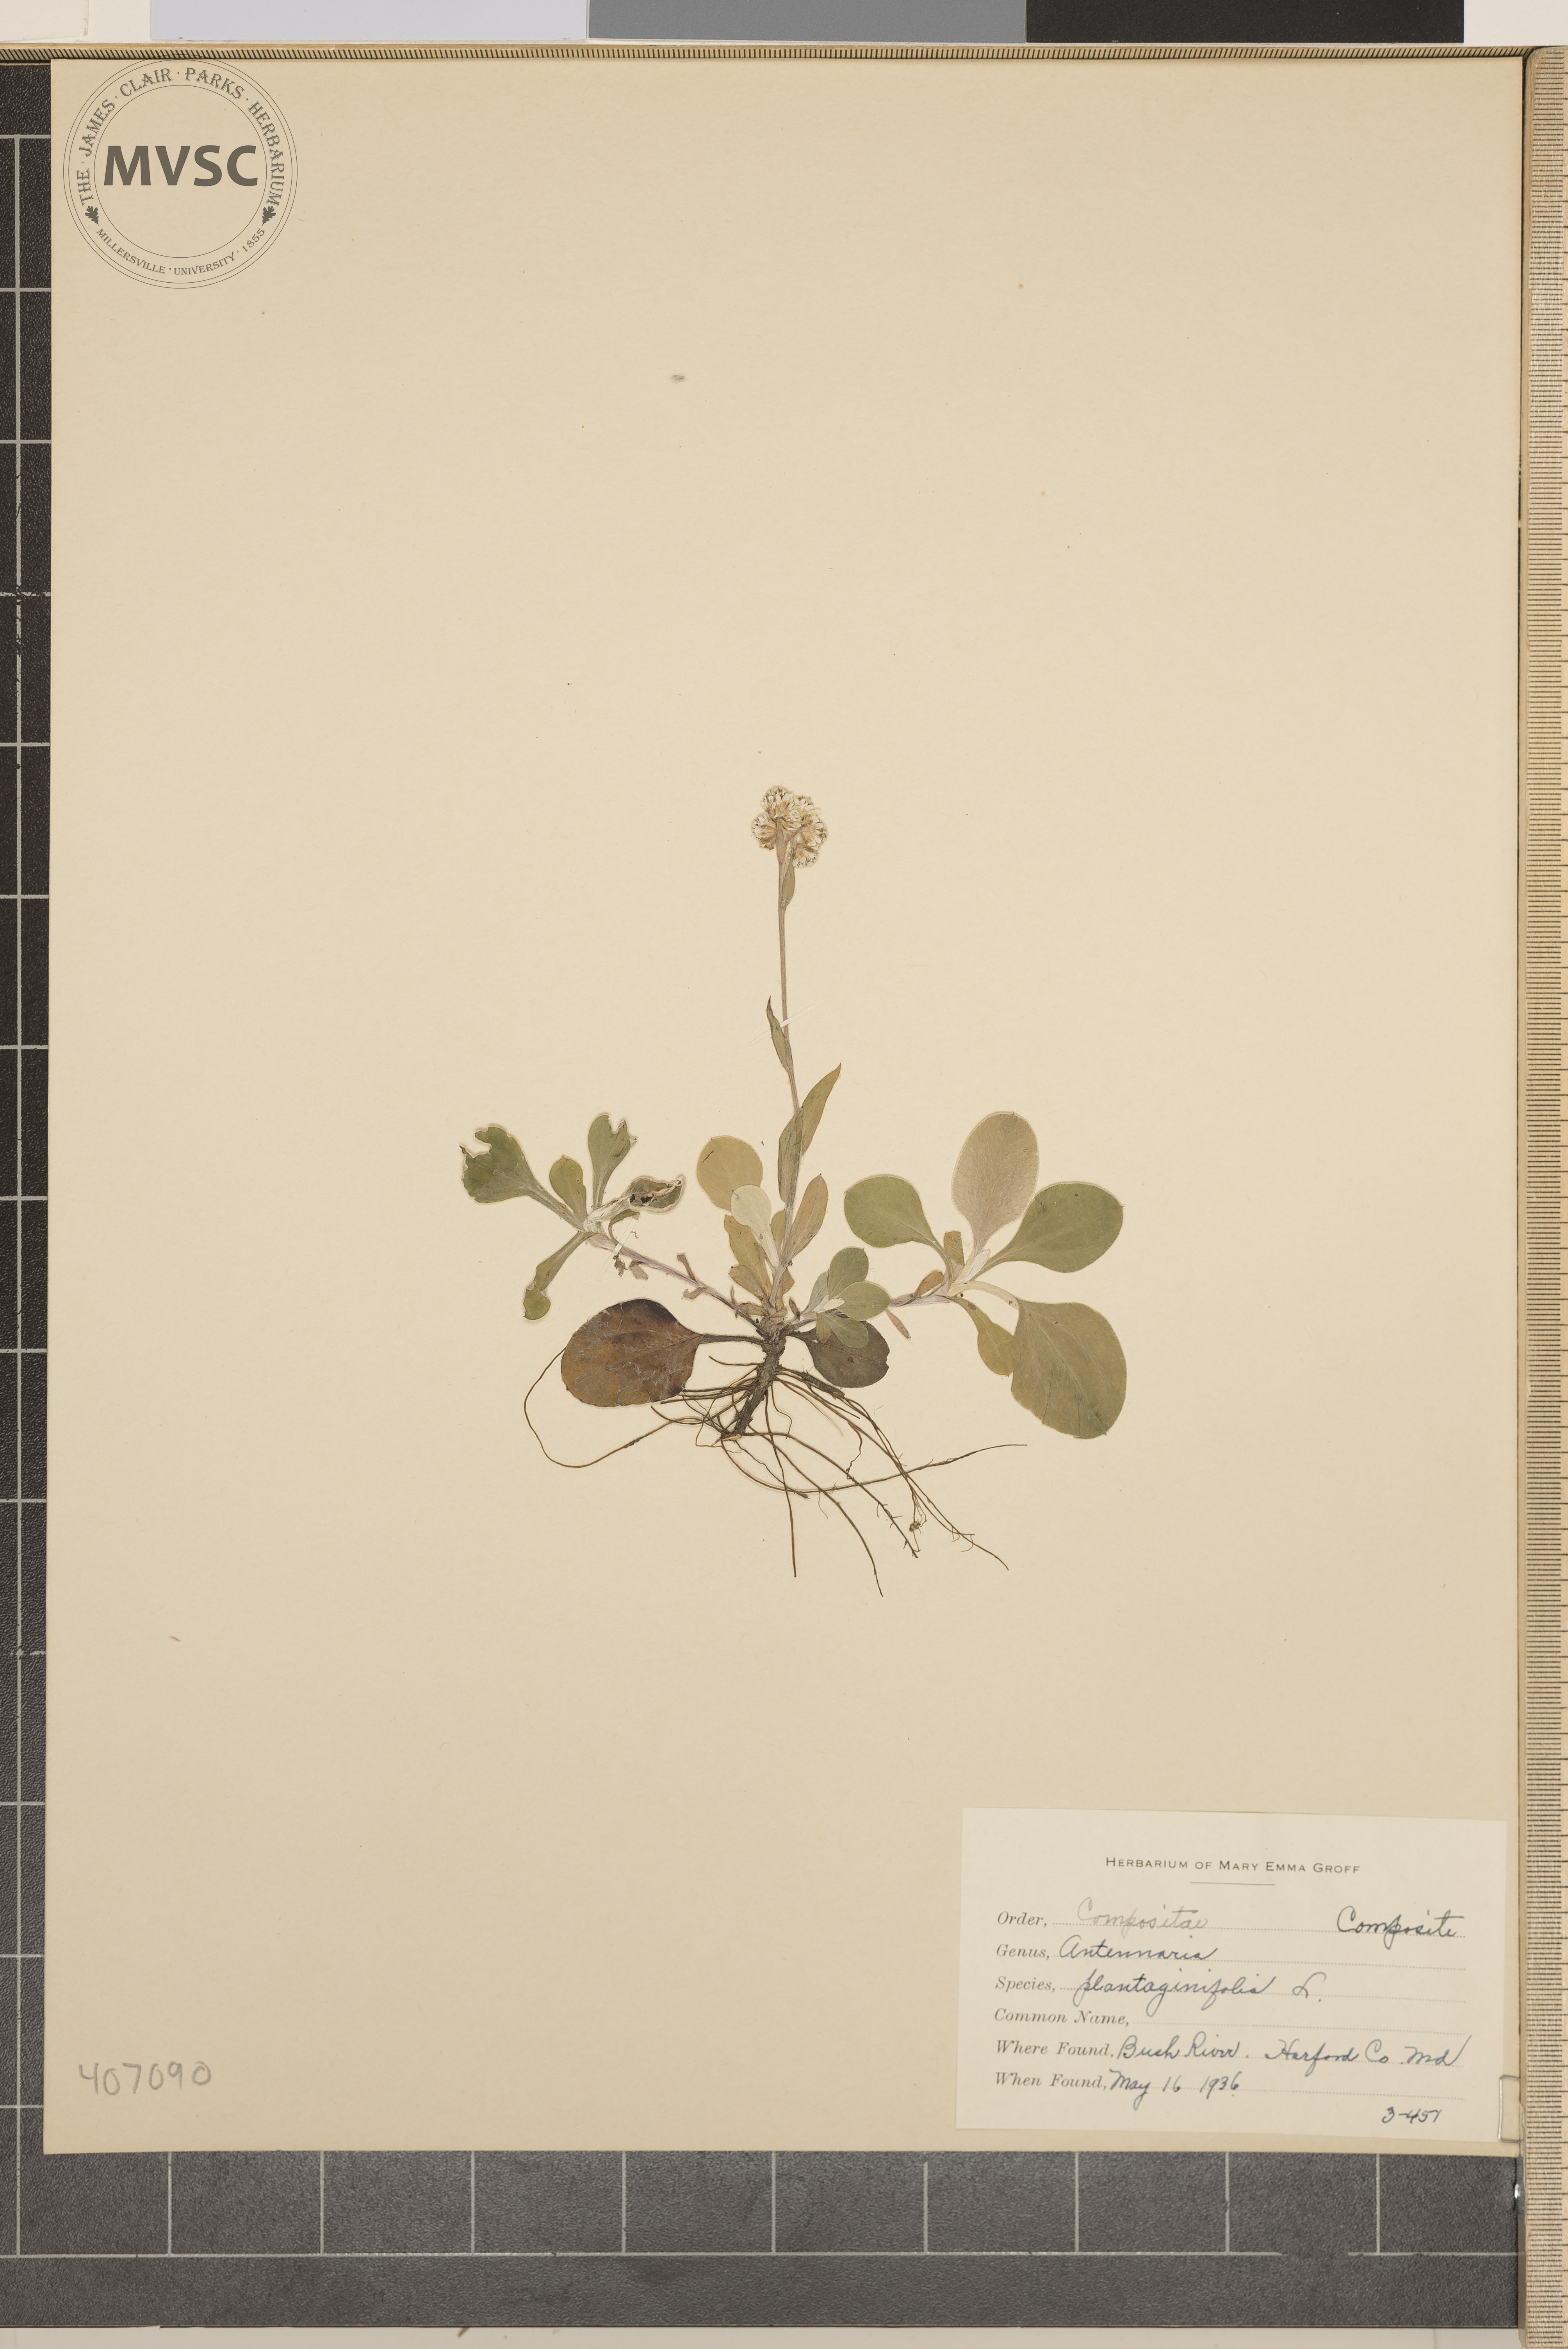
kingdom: Plantae
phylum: Tracheophyta
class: Magnoliopsida
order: Asterales
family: Asteraceae
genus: Antennaria
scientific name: Antennaria plantaginifolia
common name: Plantain-leaved pussytoes
